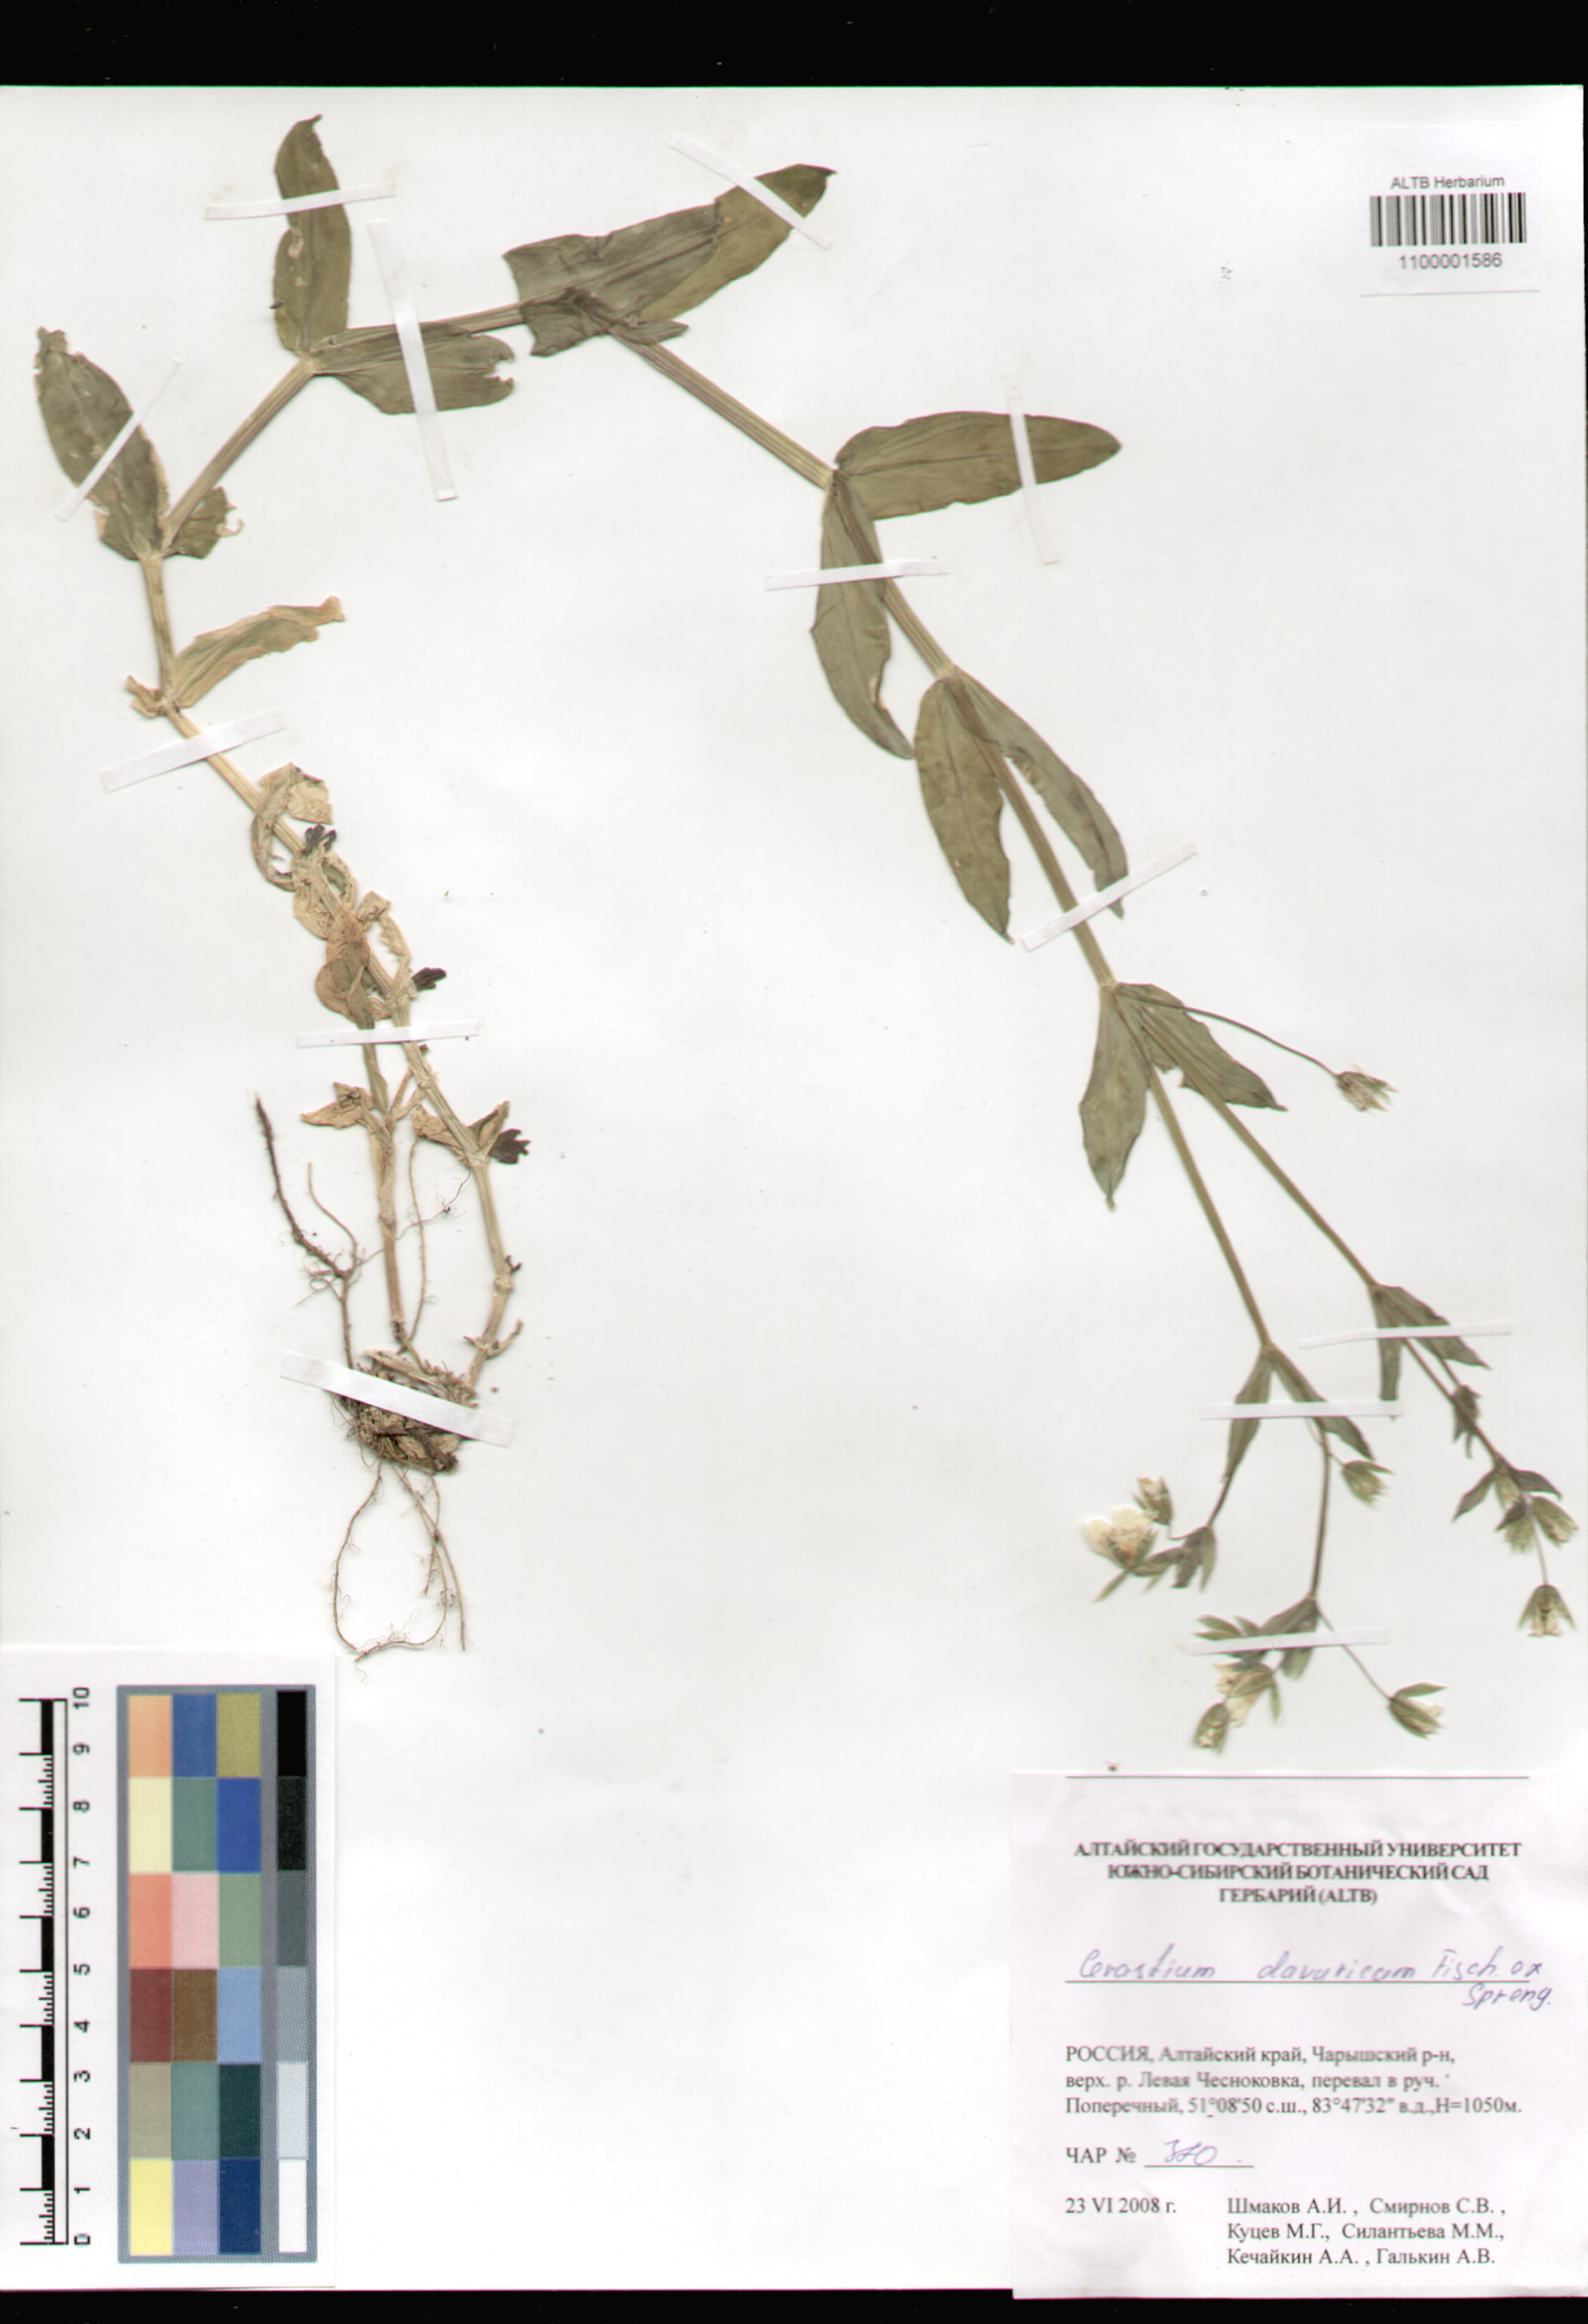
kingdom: Plantae
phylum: Tracheophyta
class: Magnoliopsida
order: Caryophyllales
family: Caryophyllaceae
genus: Dichodon
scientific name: Dichodon davuricum
